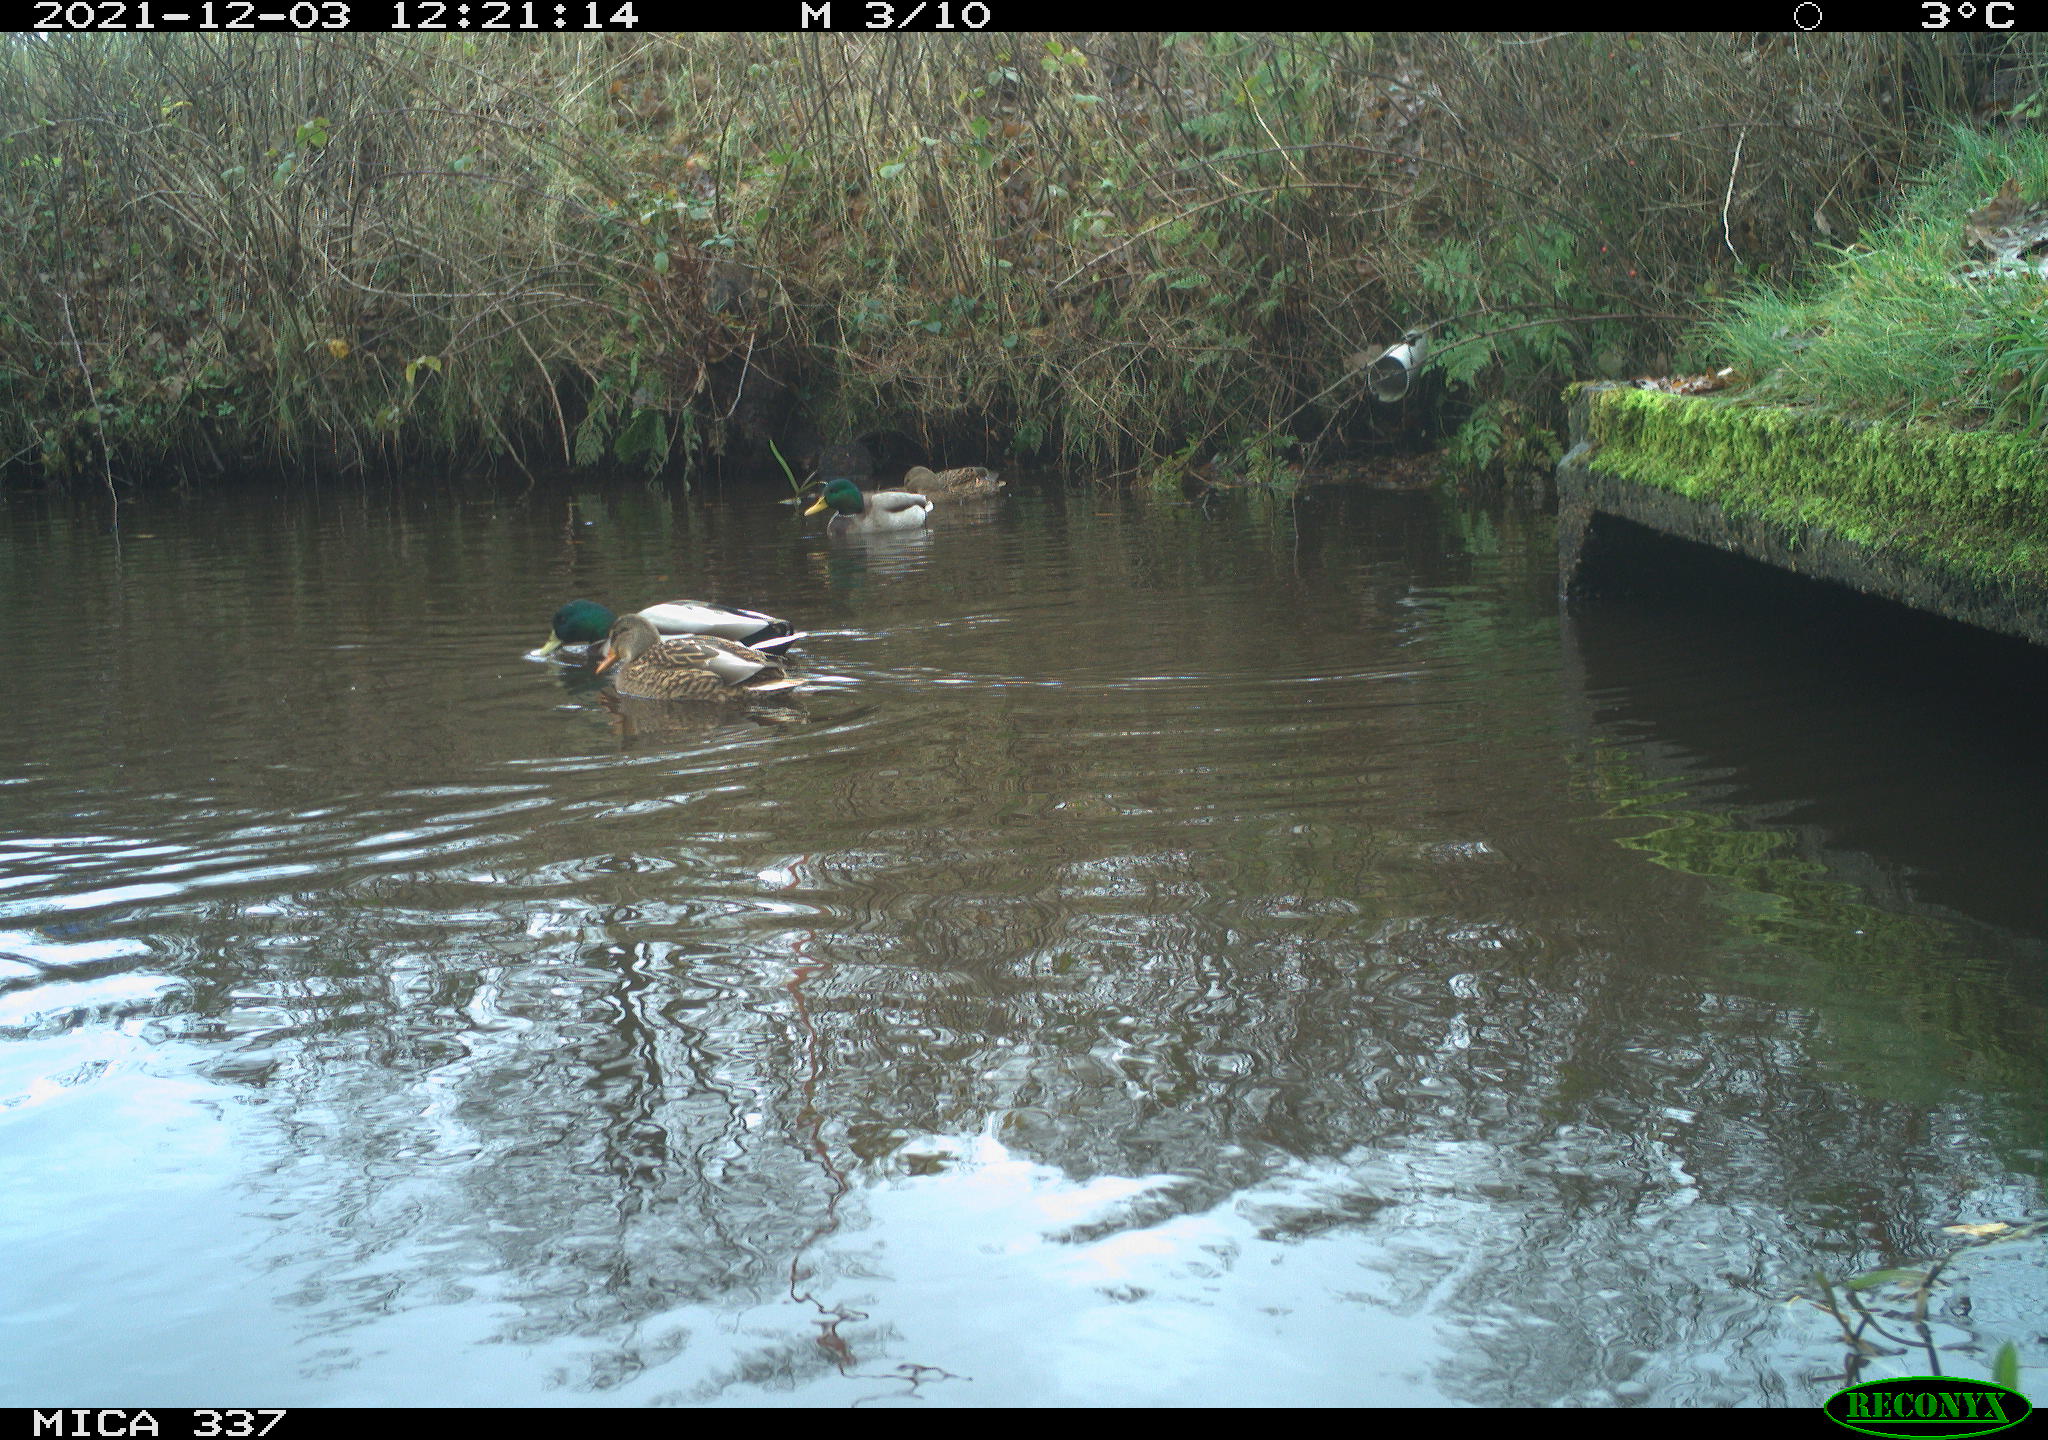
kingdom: Animalia
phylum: Chordata
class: Aves
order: Anseriformes
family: Anatidae
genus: Anas
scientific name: Anas platyrhynchos
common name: Mallard
